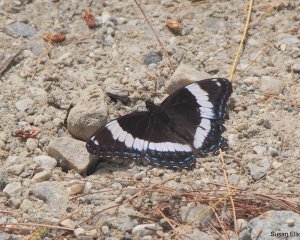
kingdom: Animalia
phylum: Arthropoda
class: Insecta
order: Lepidoptera
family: Nymphalidae
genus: Limenitis
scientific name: Limenitis arthemis
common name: Red-spotted Admiral
